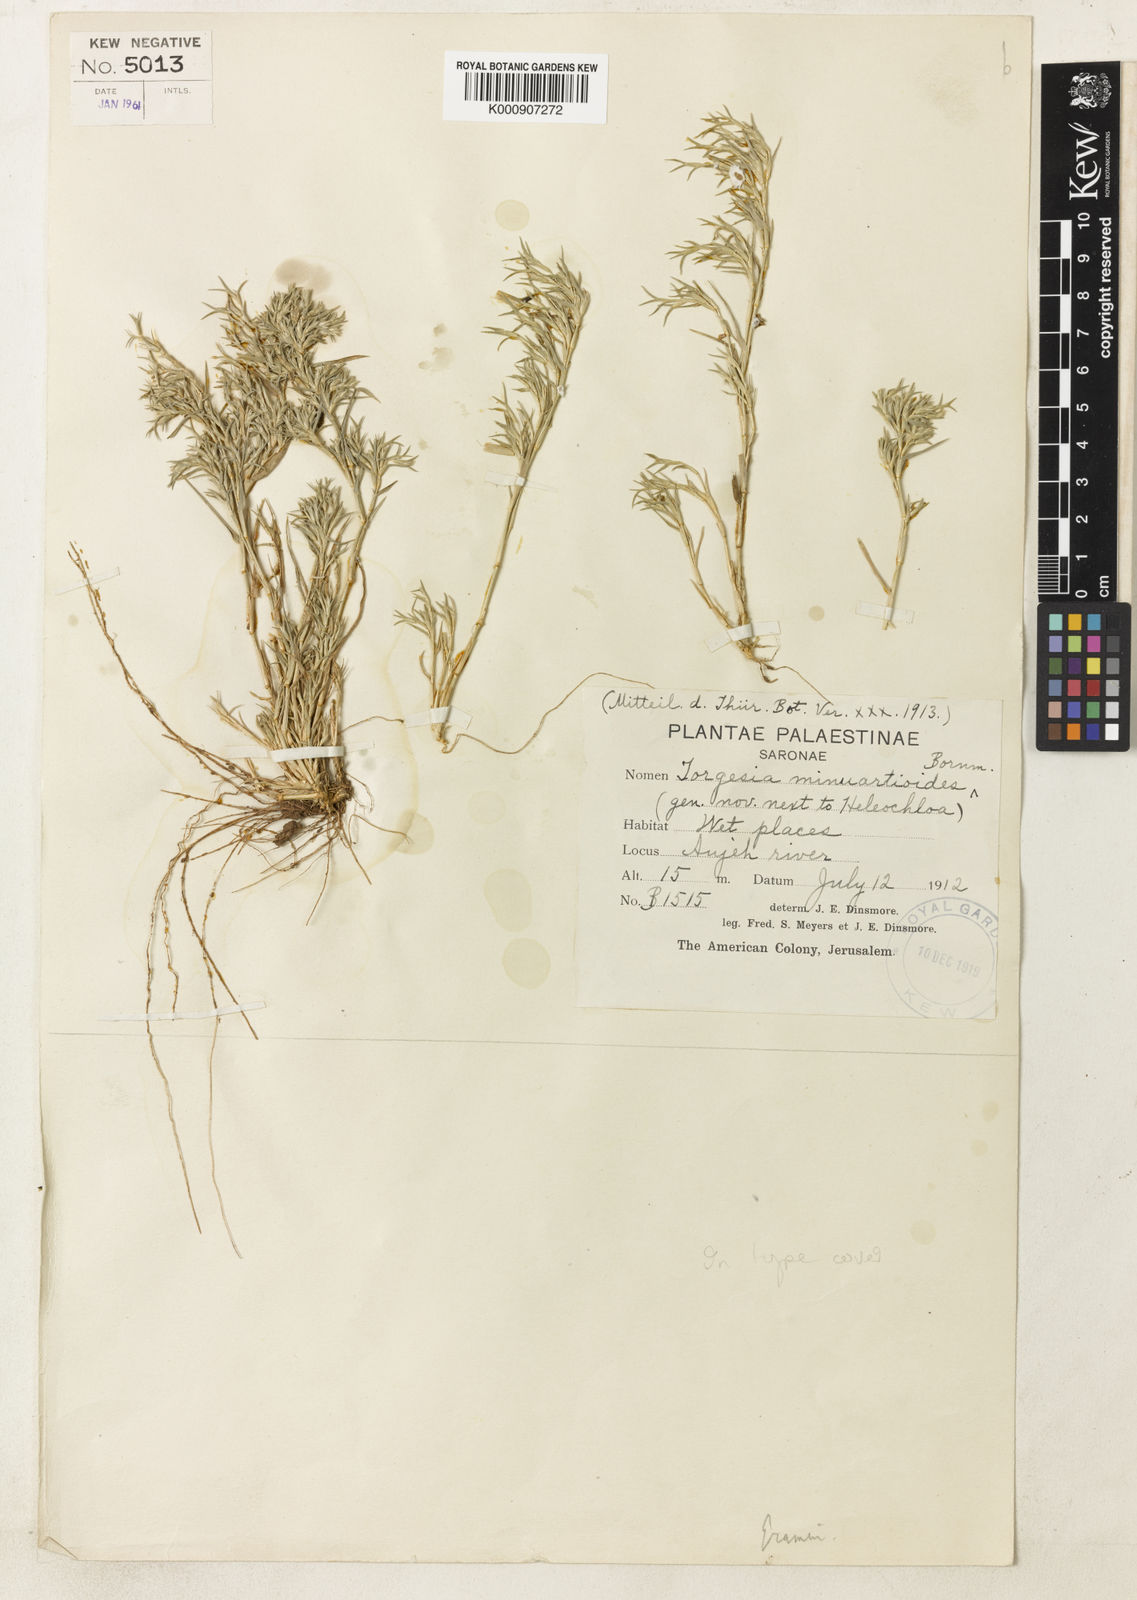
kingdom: Plantae
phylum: Tracheophyta
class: Liliopsida
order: Poales
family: Poaceae
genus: Sporobolus
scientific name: Sporobolus minuartioides
